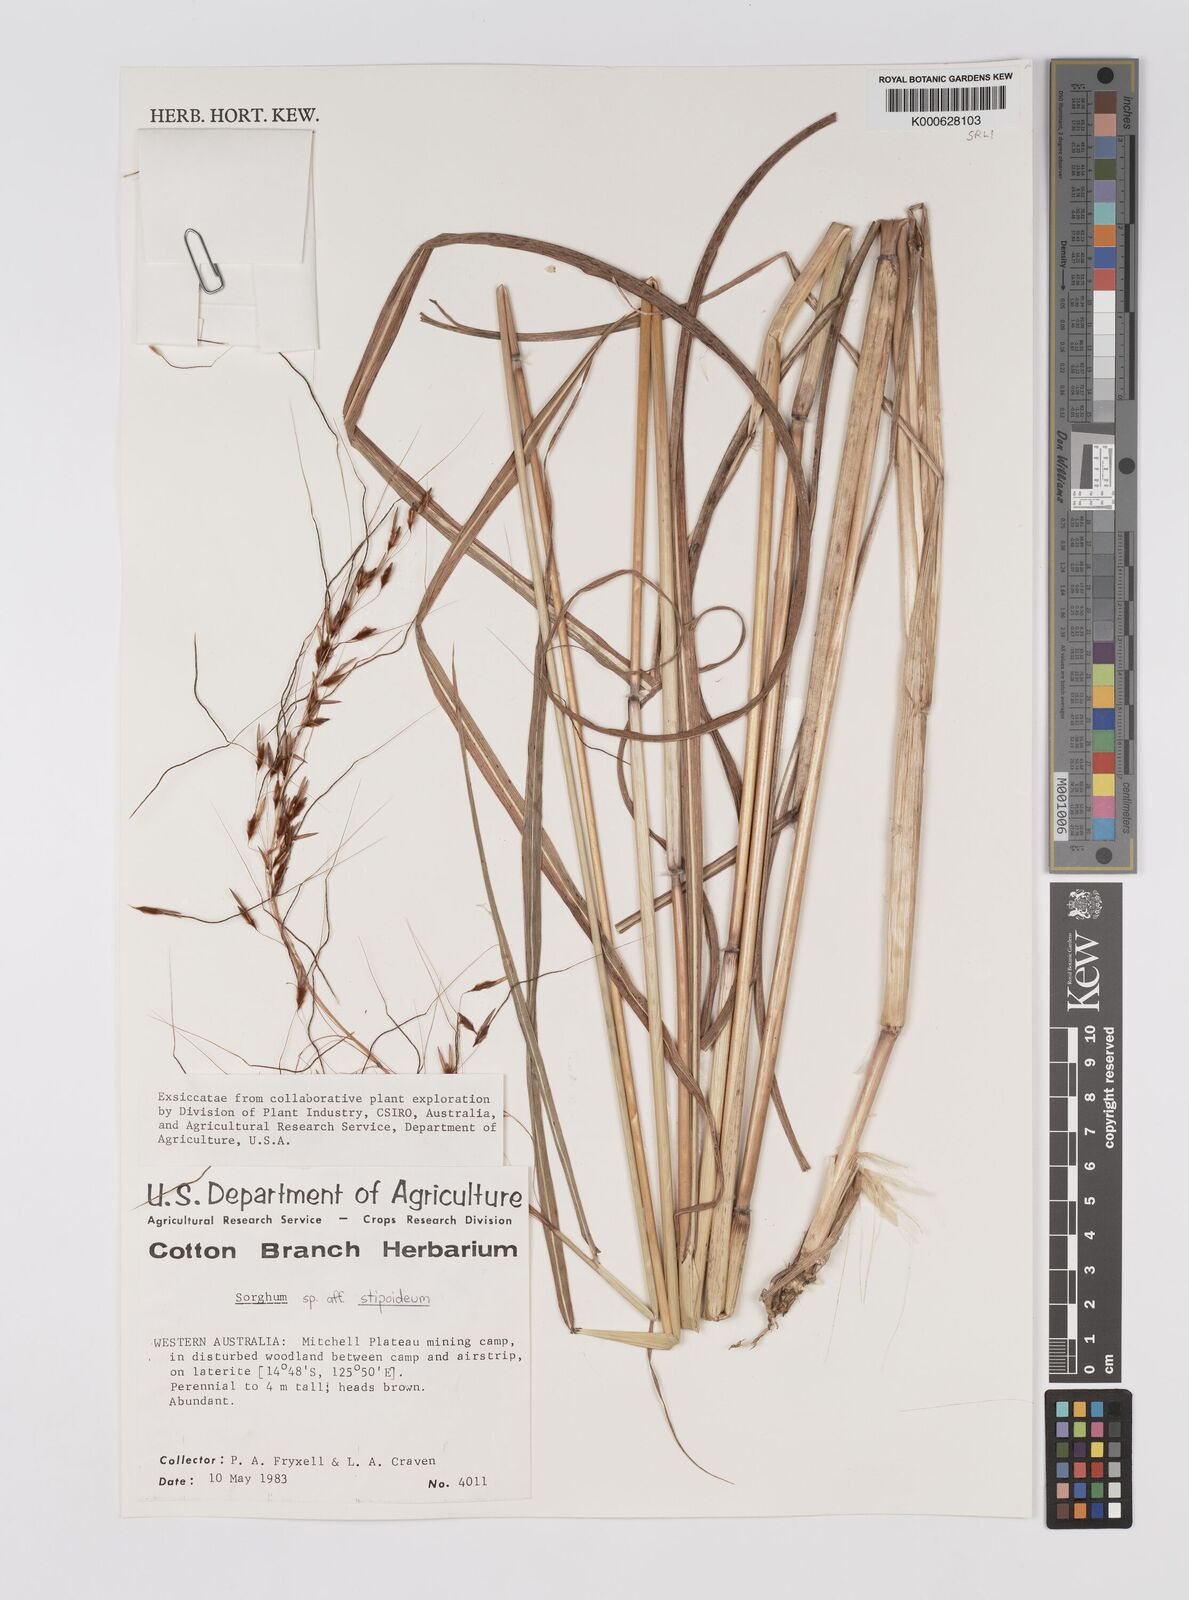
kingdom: Plantae
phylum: Tracheophyta
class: Liliopsida
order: Poales
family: Poaceae
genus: Sarga
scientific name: Sarga stipoidea
